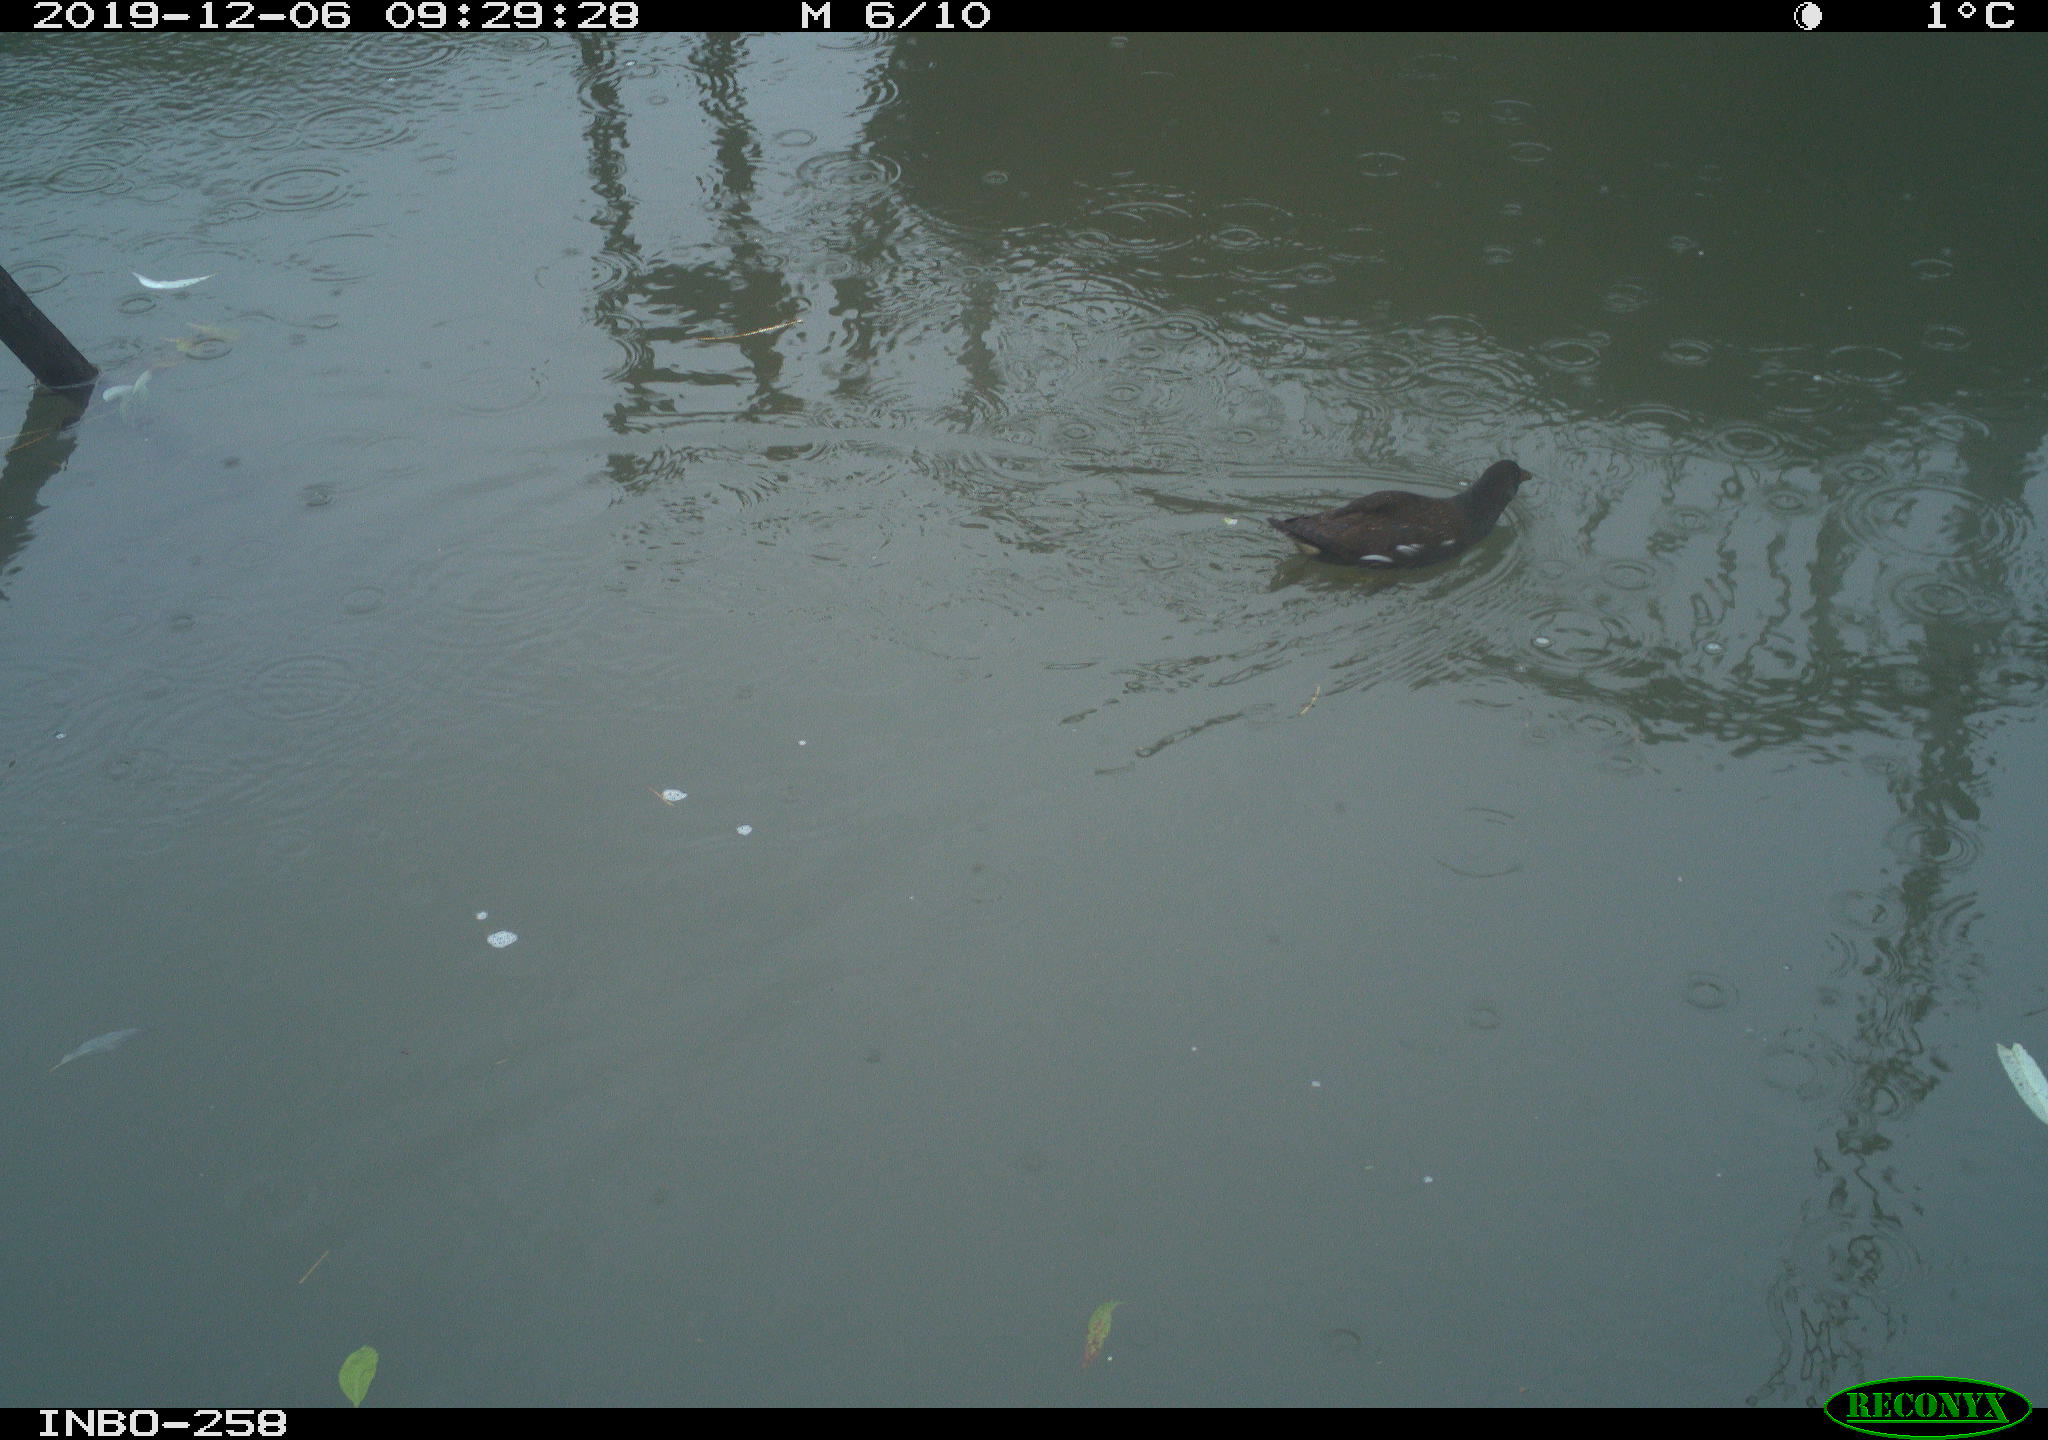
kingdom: Animalia
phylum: Chordata
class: Aves
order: Gruiformes
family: Rallidae
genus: Gallinula
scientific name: Gallinula chloropus
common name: Common moorhen
